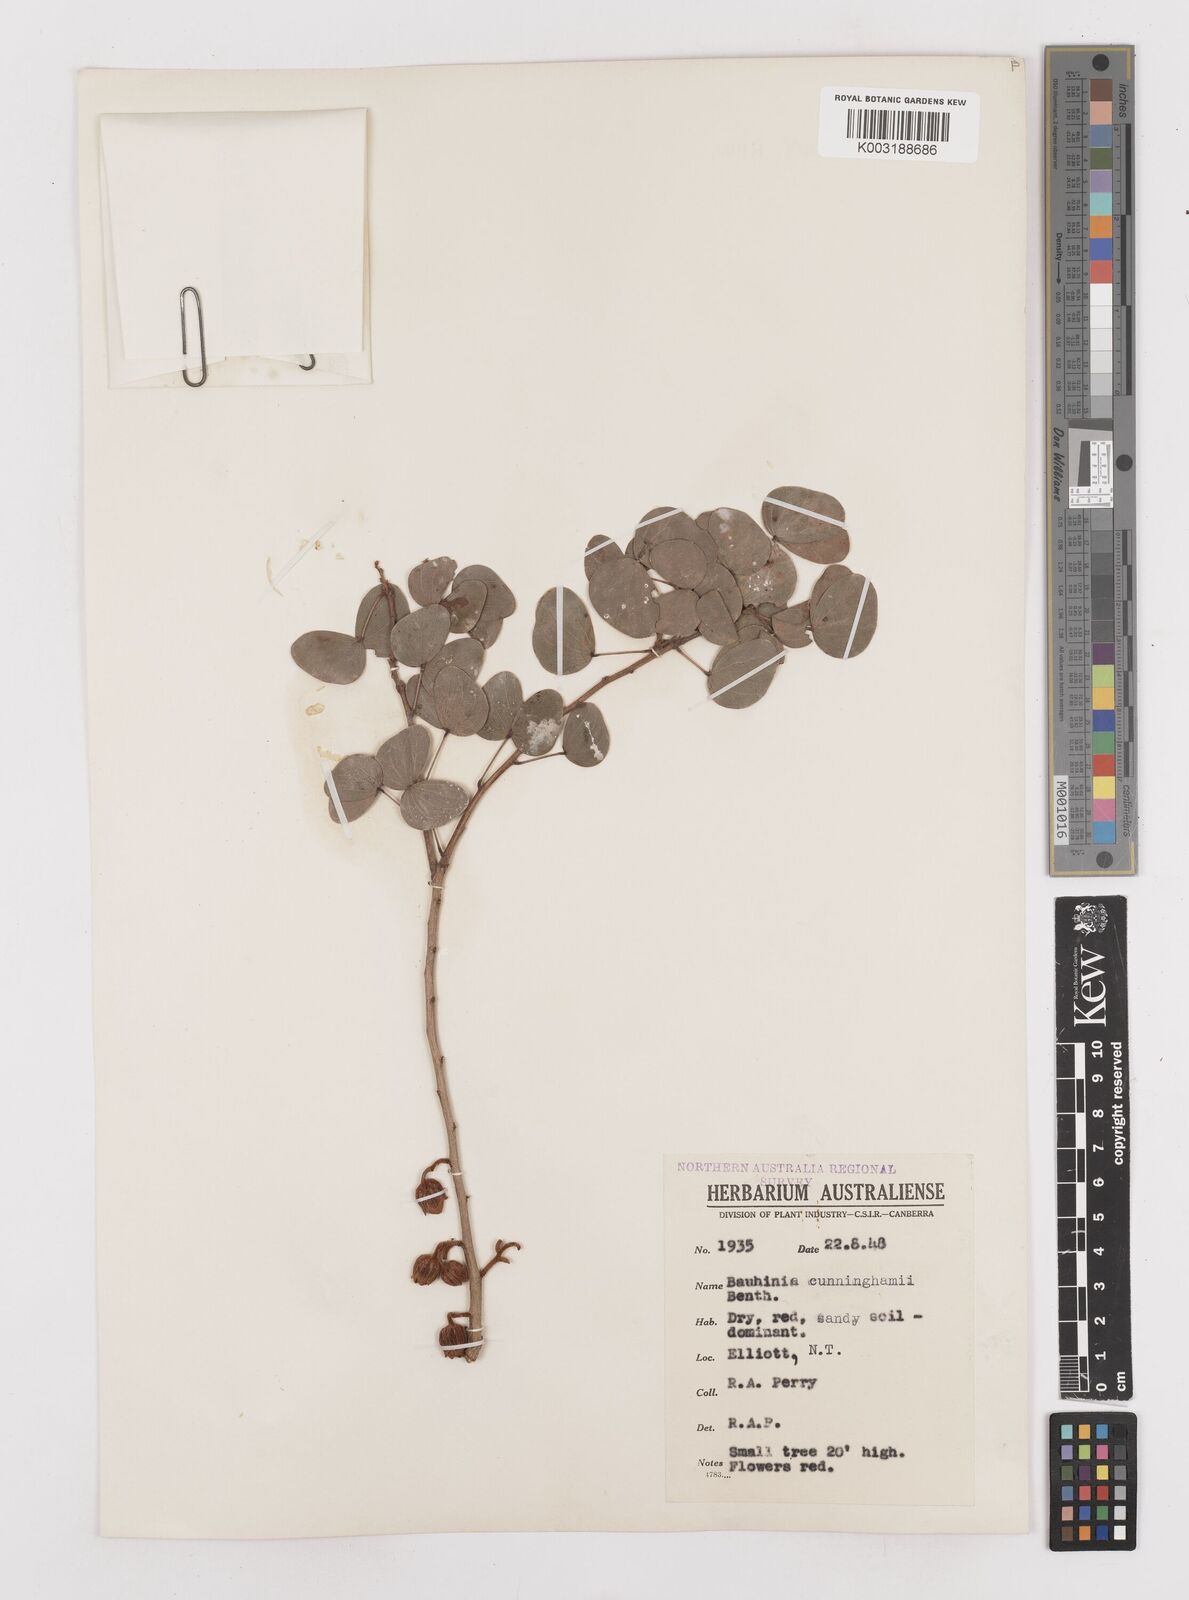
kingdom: Plantae
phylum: Tracheophyta
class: Magnoliopsida
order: Fabales
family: Fabaceae
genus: Lysiphyllum
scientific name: Lysiphyllum cunninghamii
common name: Kimberley bauhinia
